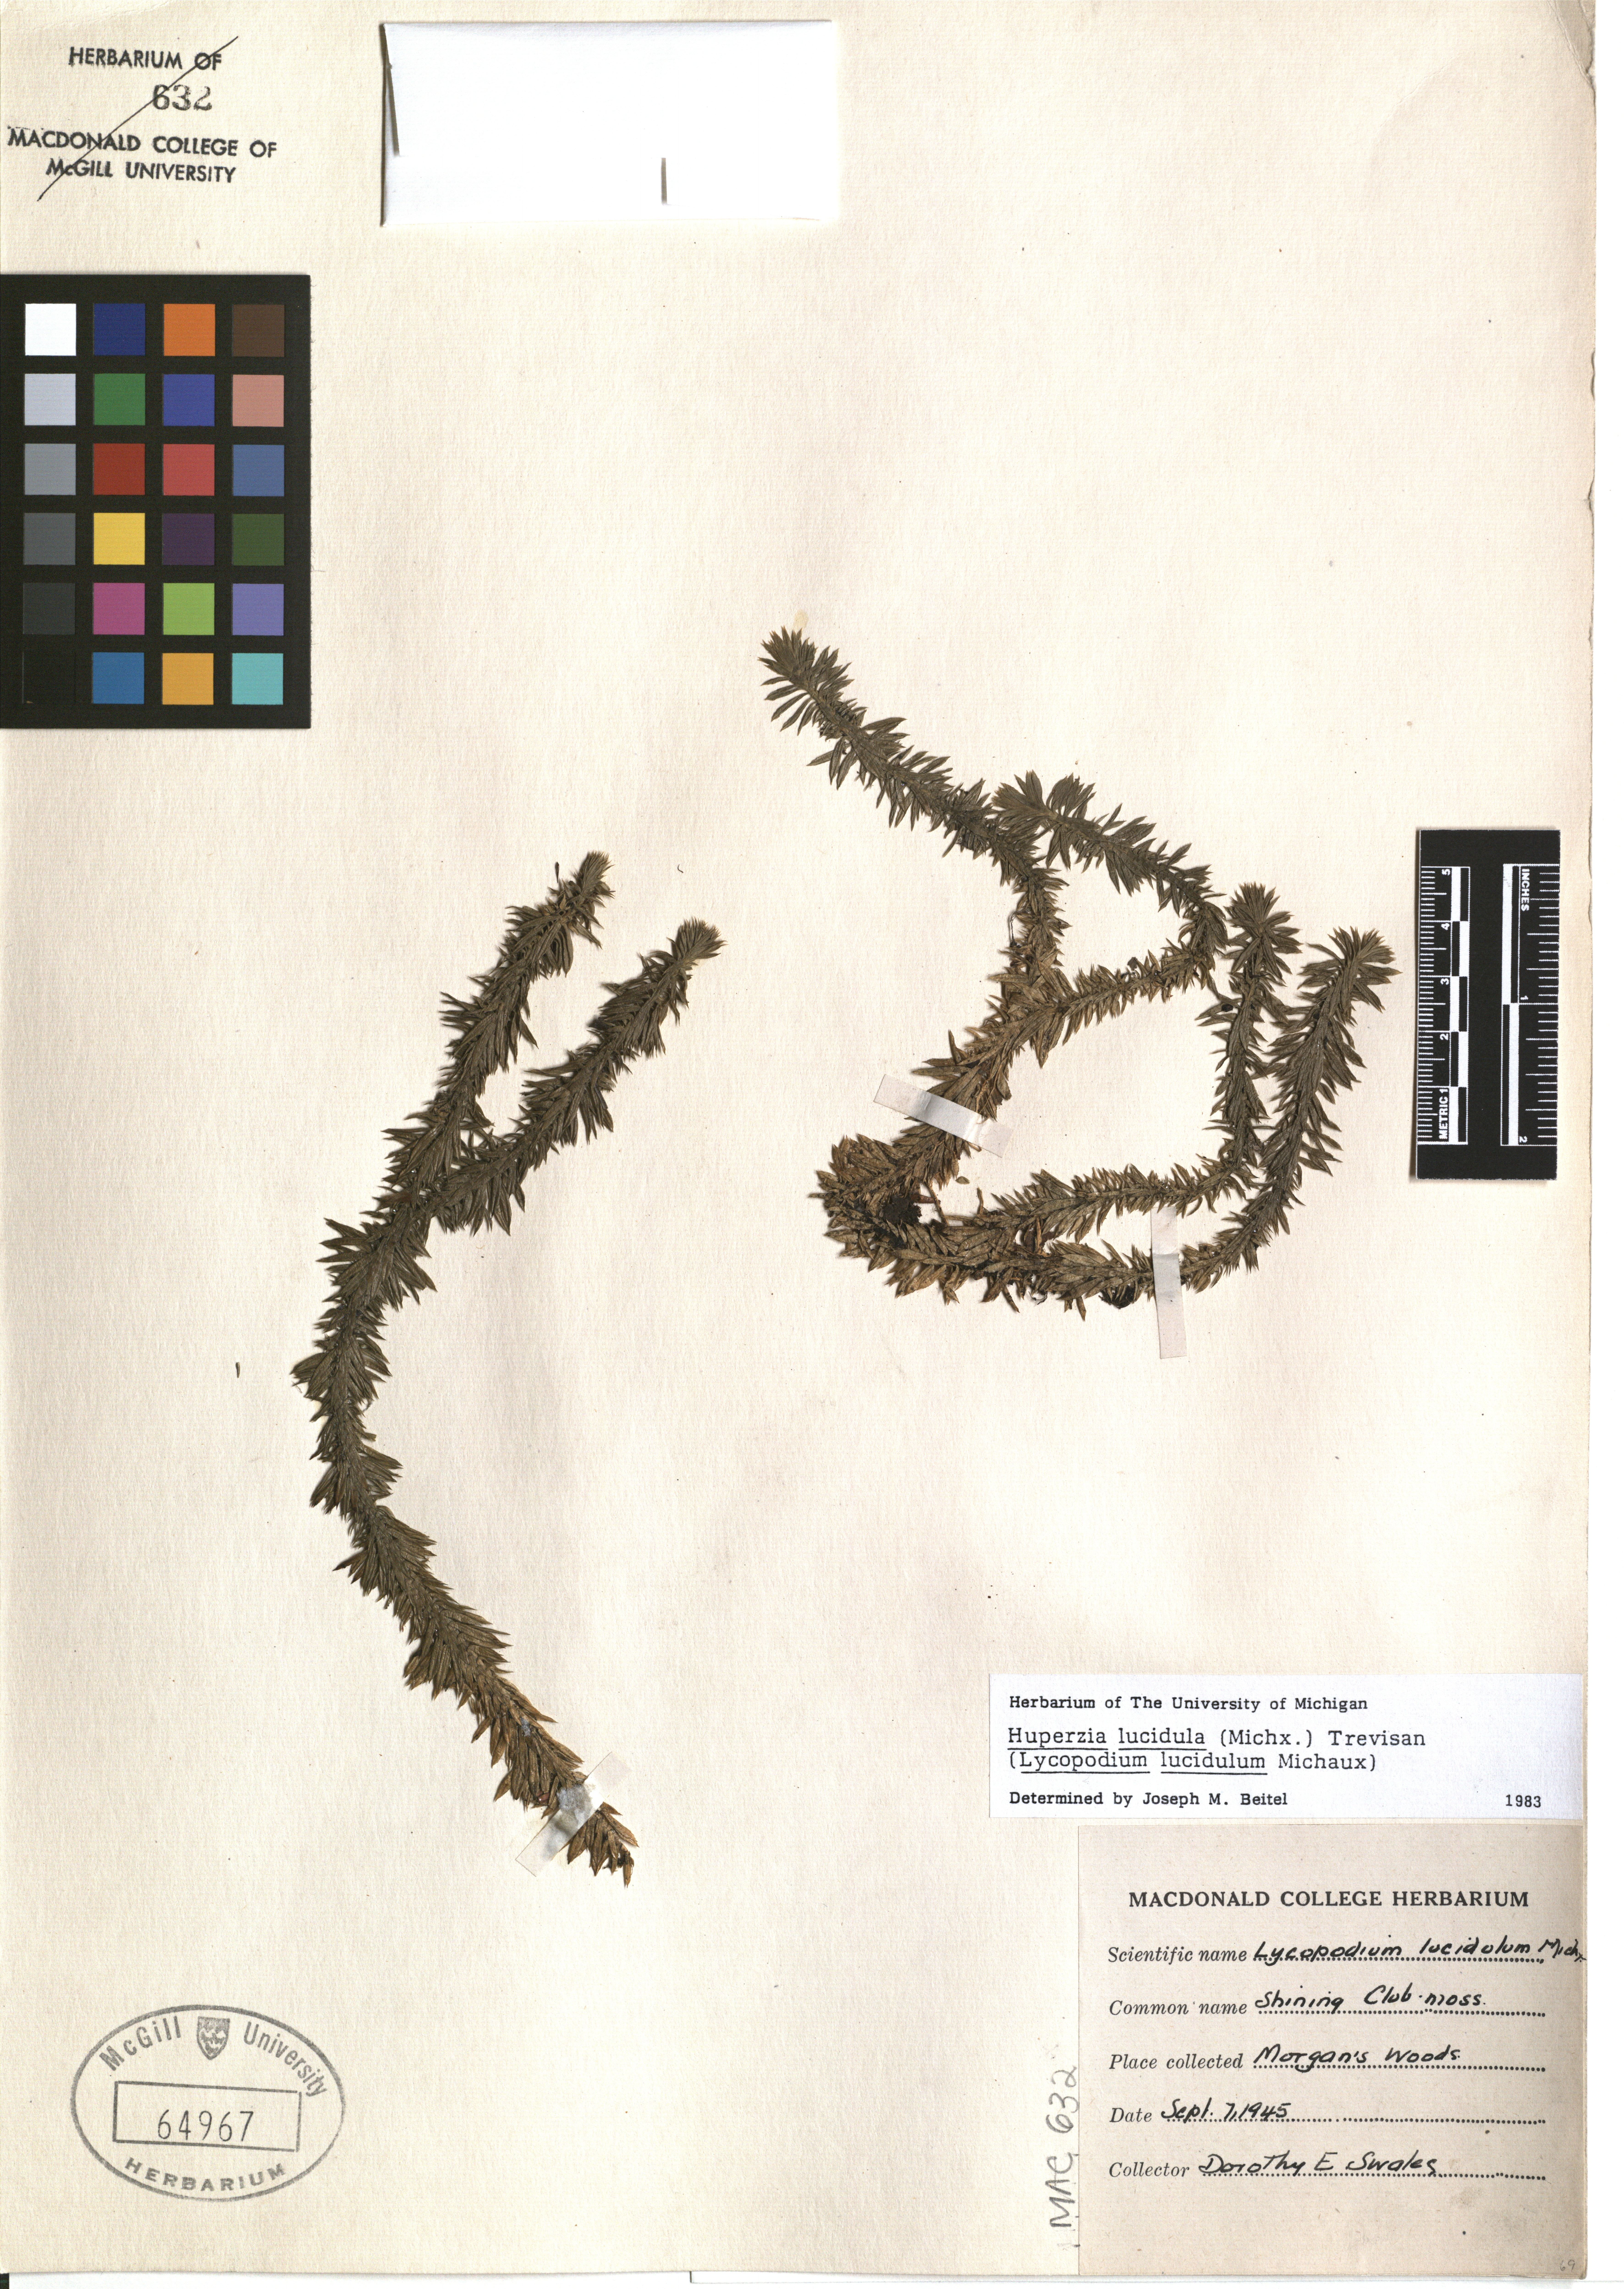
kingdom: Plantae
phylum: Tracheophyta
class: Lycopodiopsida
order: Lycopodiales
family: Lycopodiaceae
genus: Huperzia
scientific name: Huperzia lucidula
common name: Shining clubmoss
